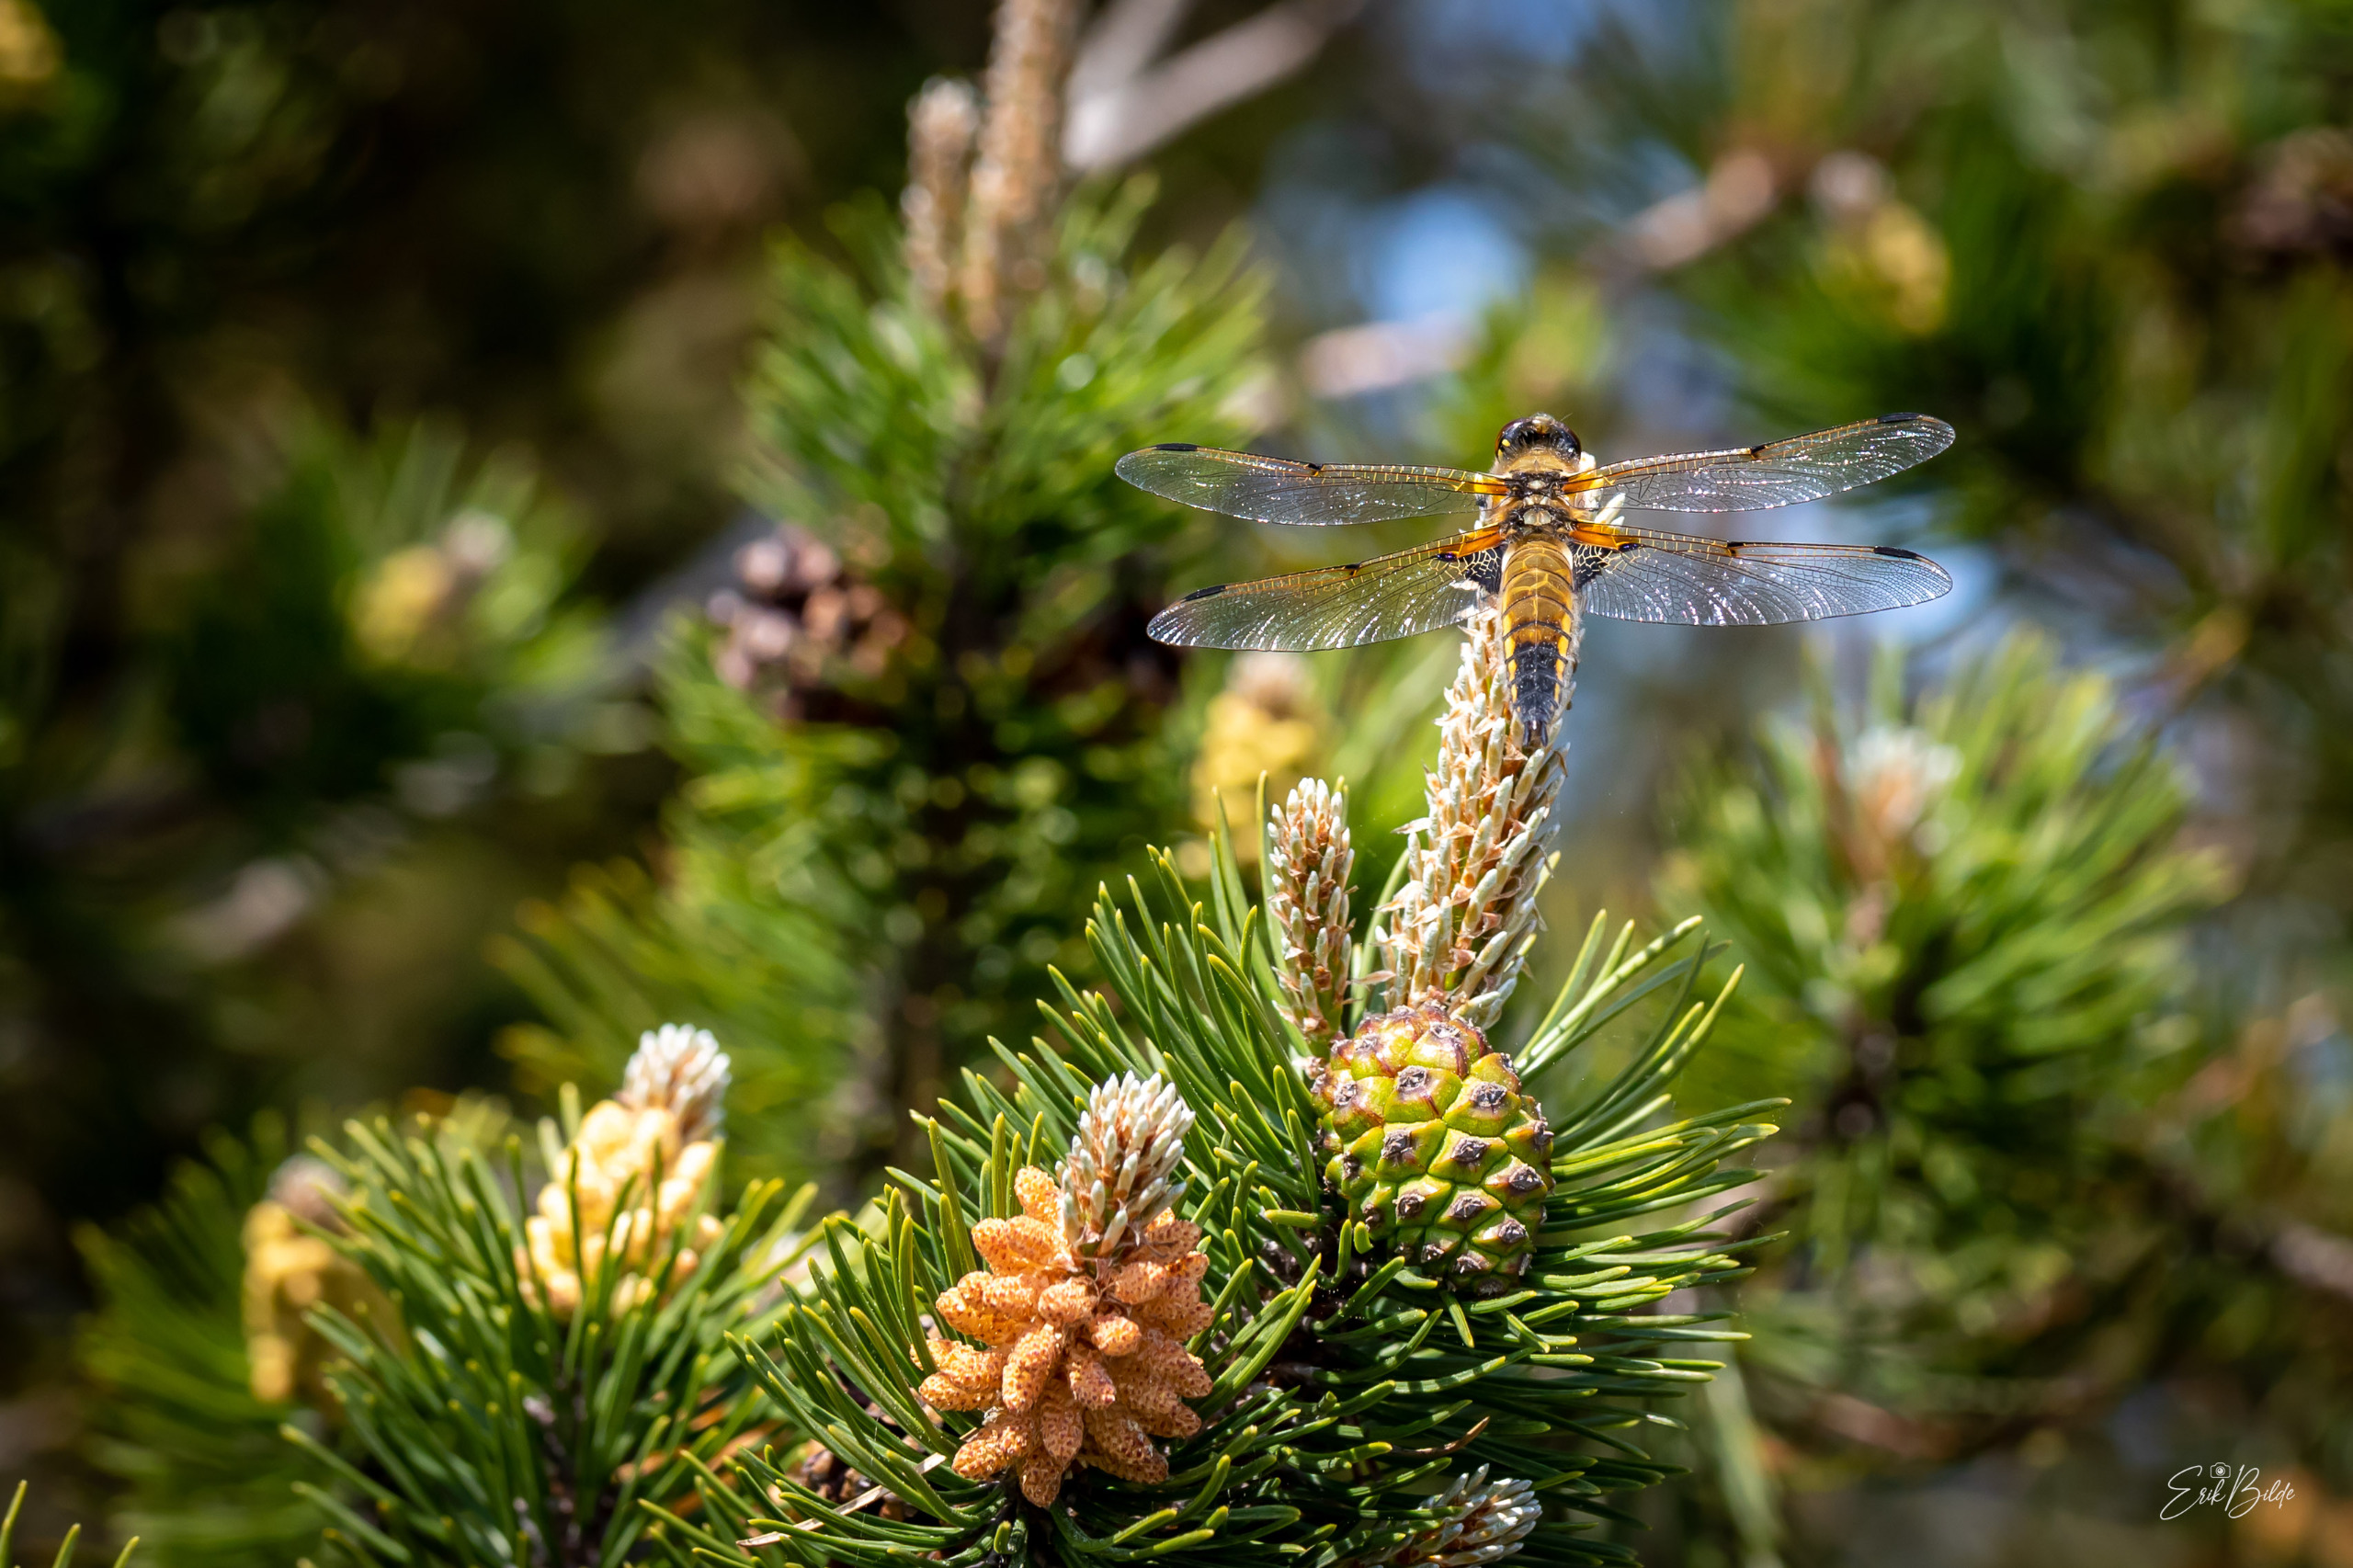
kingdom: Animalia
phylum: Arthropoda
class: Insecta
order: Odonata
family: Libellulidae
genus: Libellula
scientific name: Libellula quadrimaculata
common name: Fireplettet libel
